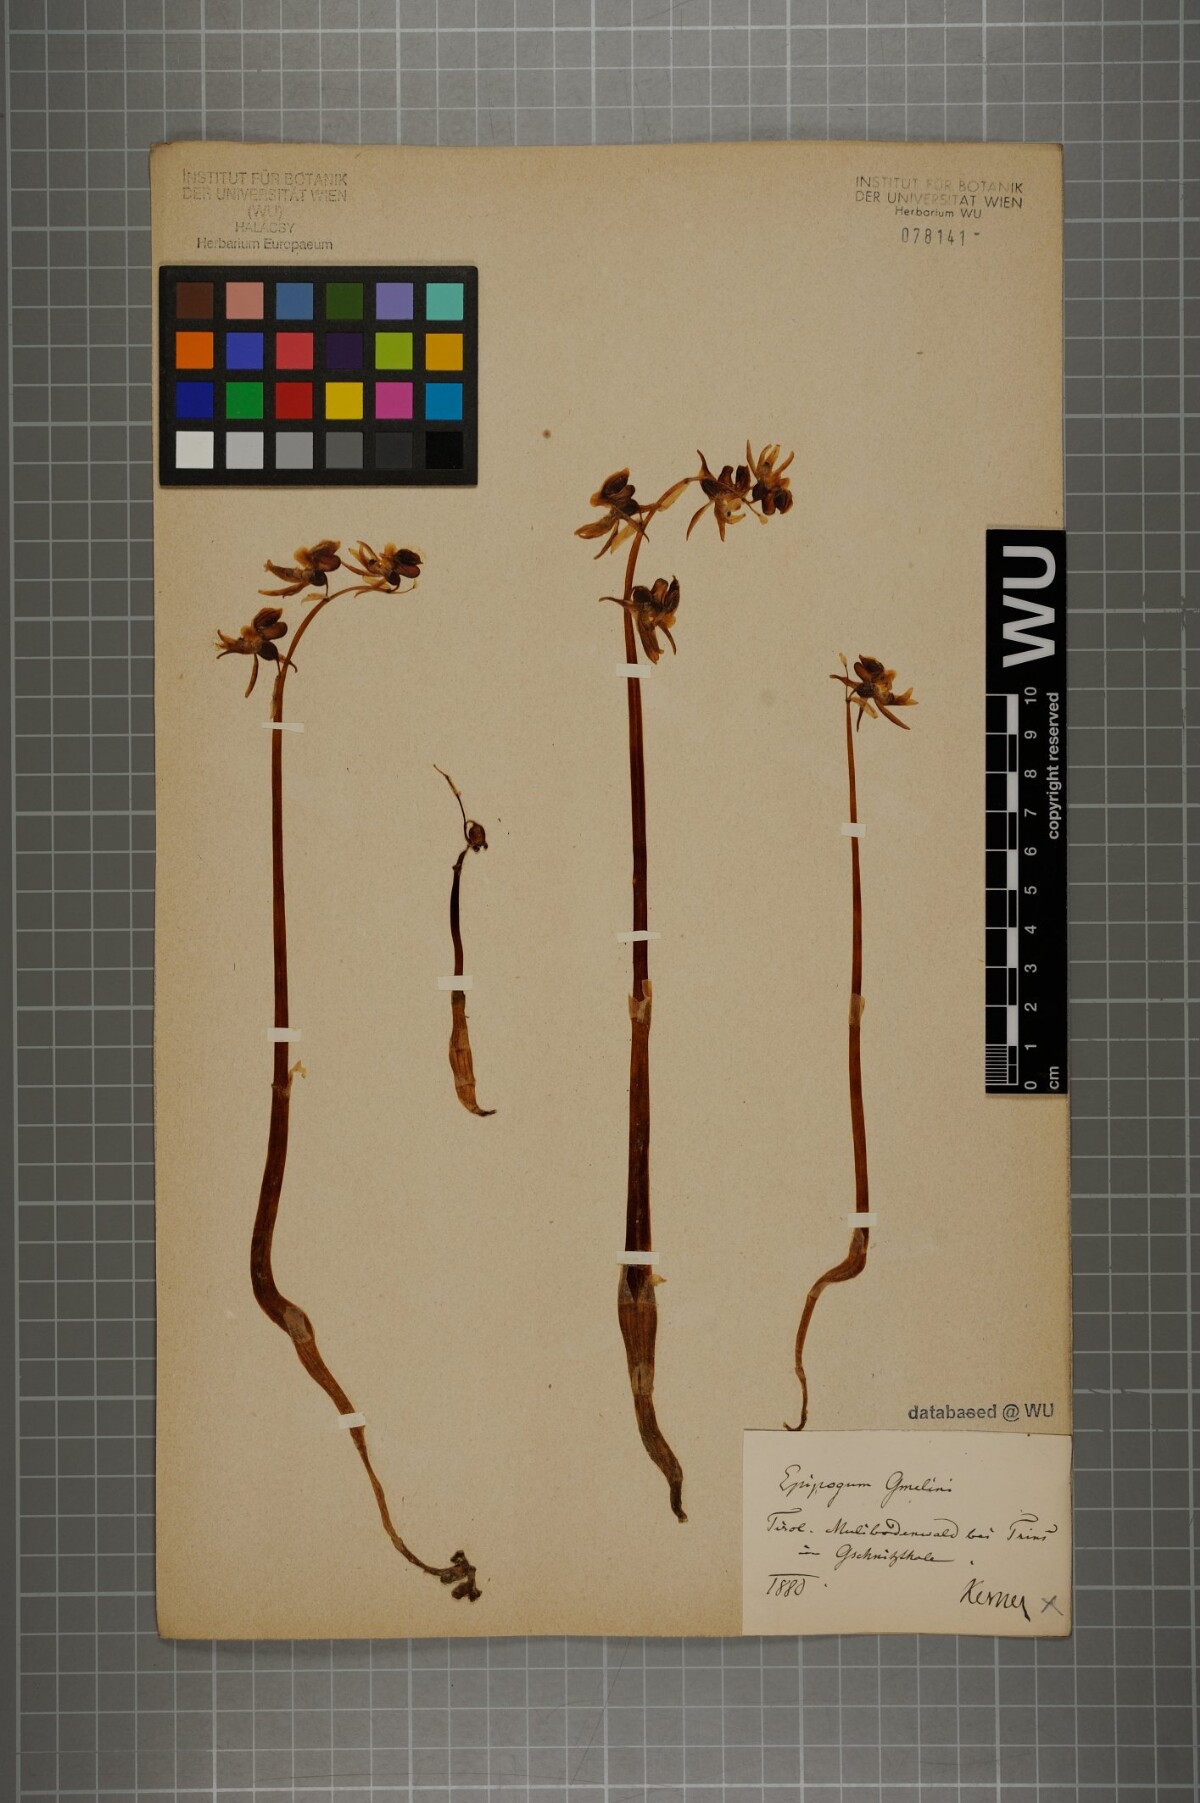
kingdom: Plantae
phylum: Tracheophyta
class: Liliopsida
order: Asparagales
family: Orchidaceae
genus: Epipogium
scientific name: Epipogium aphyllum
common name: Ghost orchid
